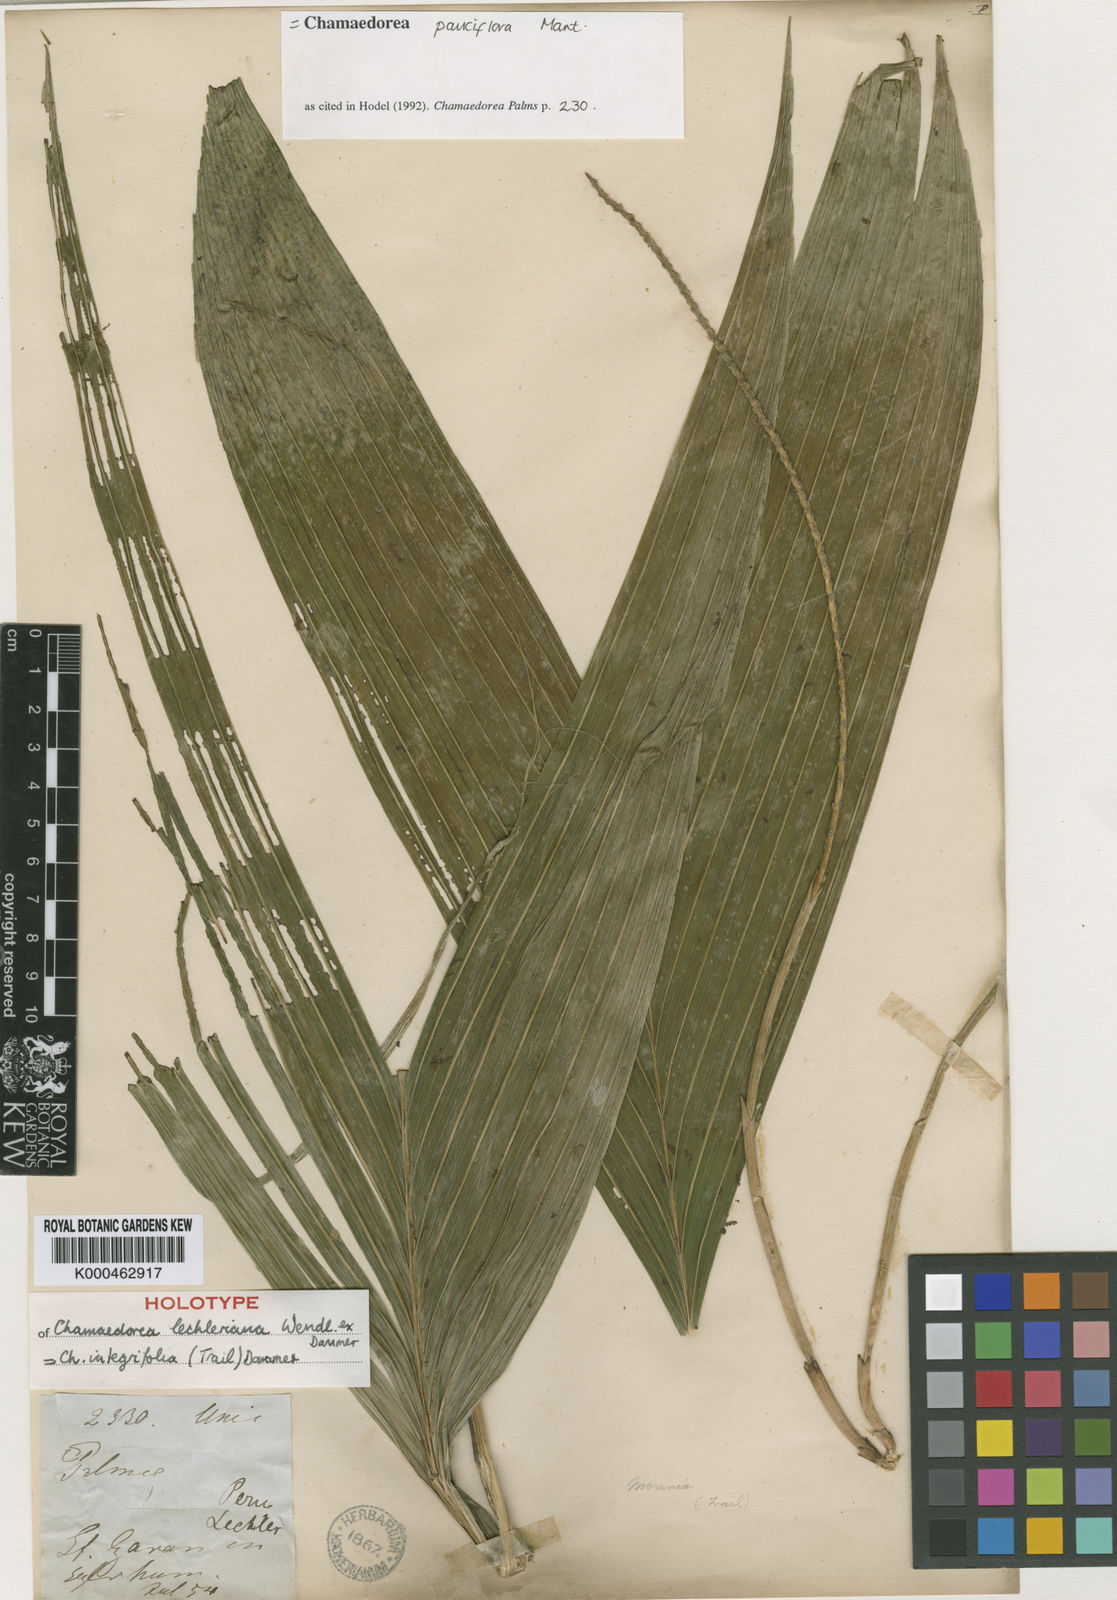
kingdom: Plantae
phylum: Tracheophyta
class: Liliopsida
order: Arecales
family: Arecaceae
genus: Chamaedorea
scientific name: Chamaedorea pauciflora
